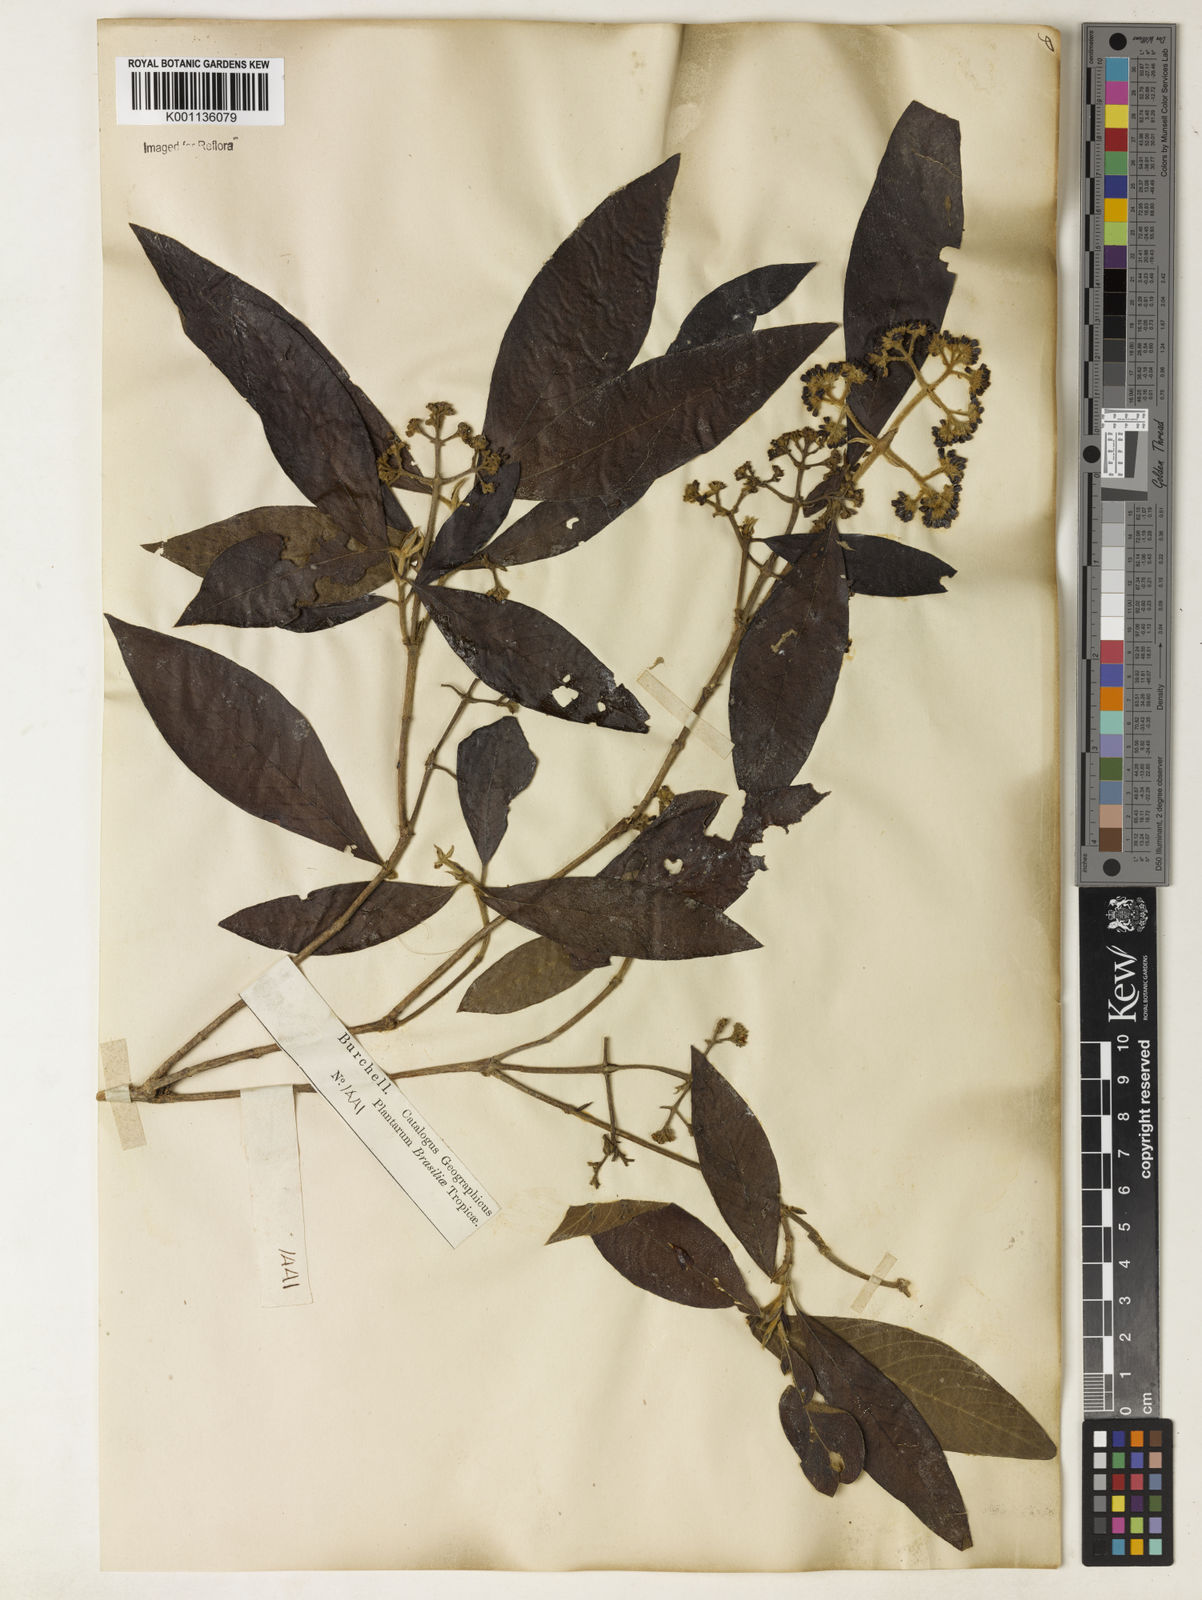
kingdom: Plantae
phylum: Tracheophyta
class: Magnoliopsida
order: Gentianales
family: Rubiaceae
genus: Bathysa
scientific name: Bathysa gymnocarpa
